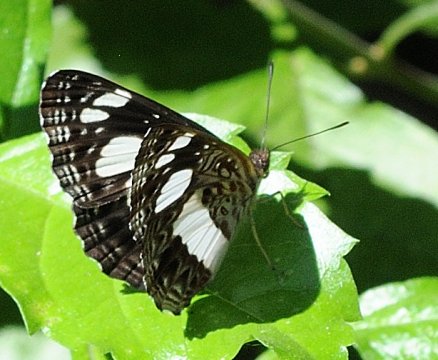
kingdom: Animalia
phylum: Arthropoda
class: Insecta
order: Lepidoptera
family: Nymphalidae
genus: Neptis
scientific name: Neptis saclava
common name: Spotted Sailer
